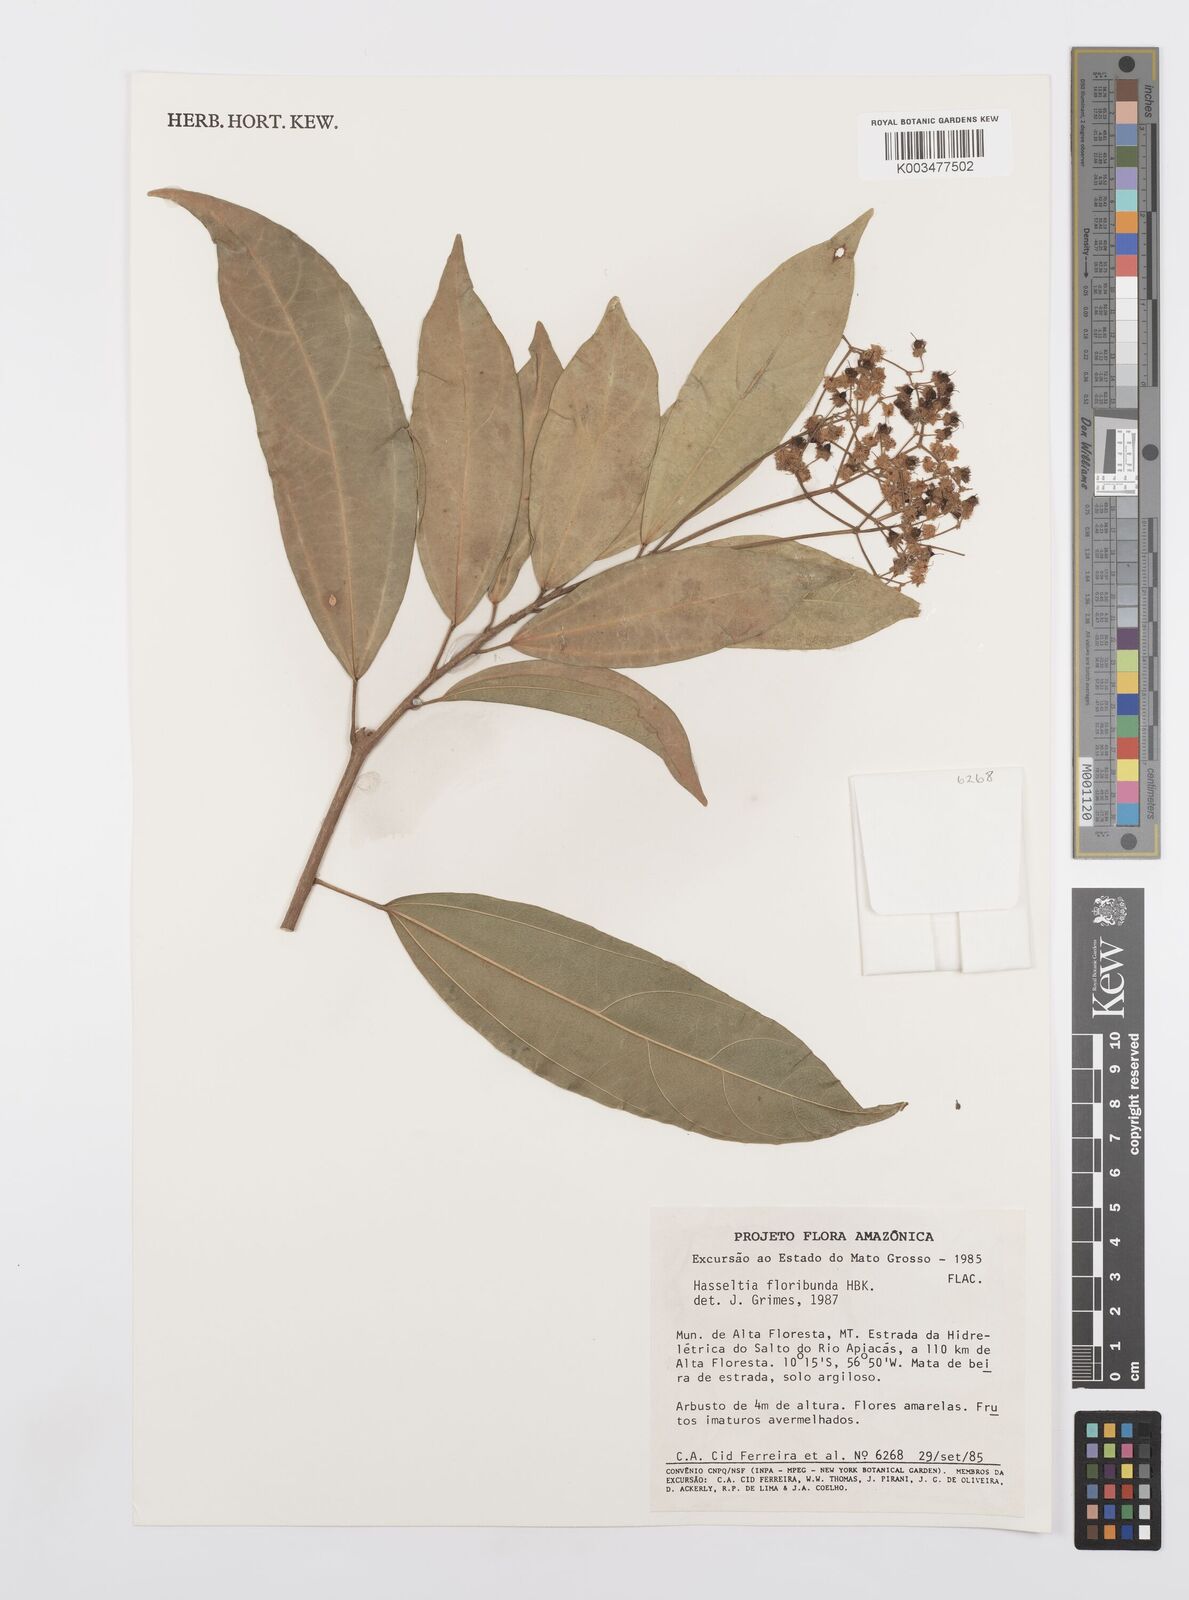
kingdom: Plantae
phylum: Tracheophyta
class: Magnoliopsida
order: Malpighiales
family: Salicaceae
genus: Hasseltia
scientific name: Hasseltia floribunda
